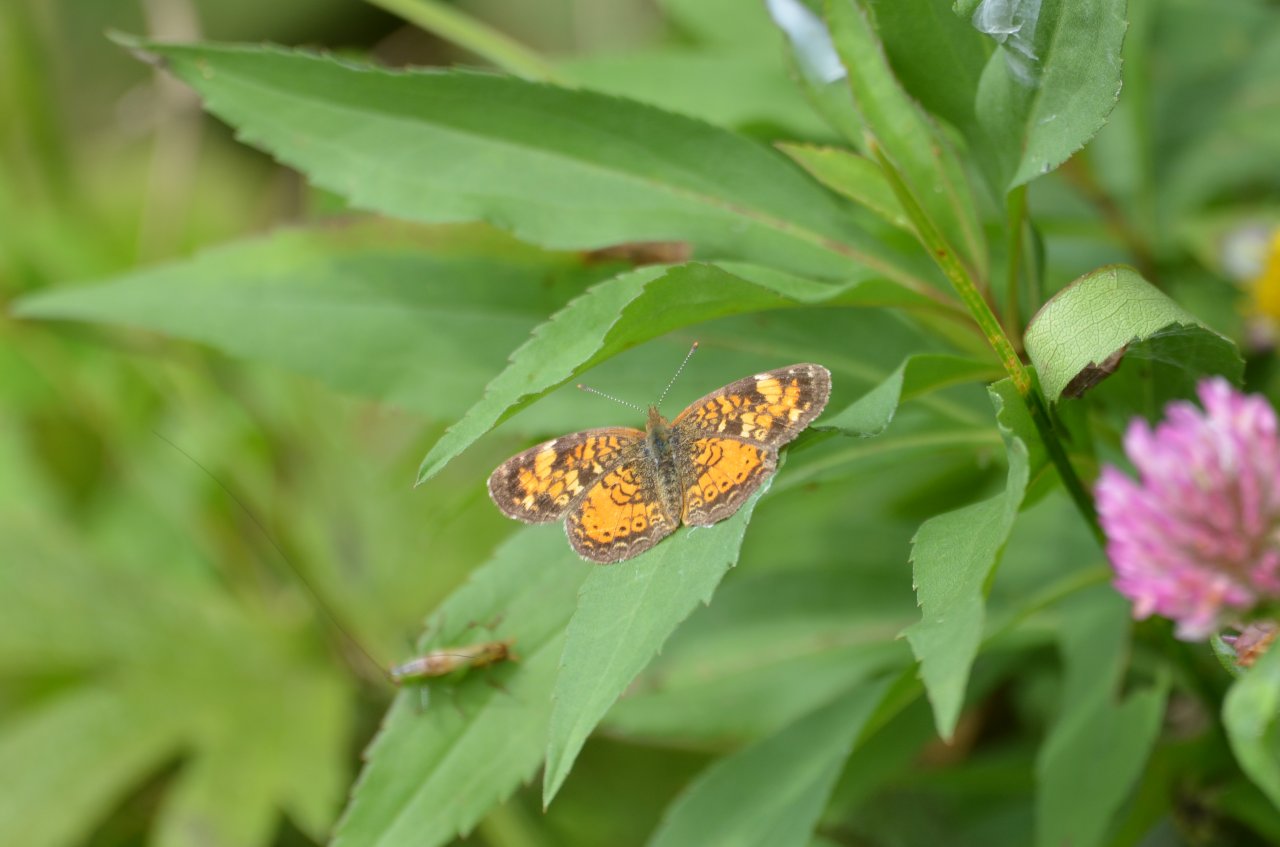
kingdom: Animalia
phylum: Arthropoda
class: Insecta
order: Lepidoptera
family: Nymphalidae
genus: Phyciodes
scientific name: Phyciodes tharos
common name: Northern Crescent
